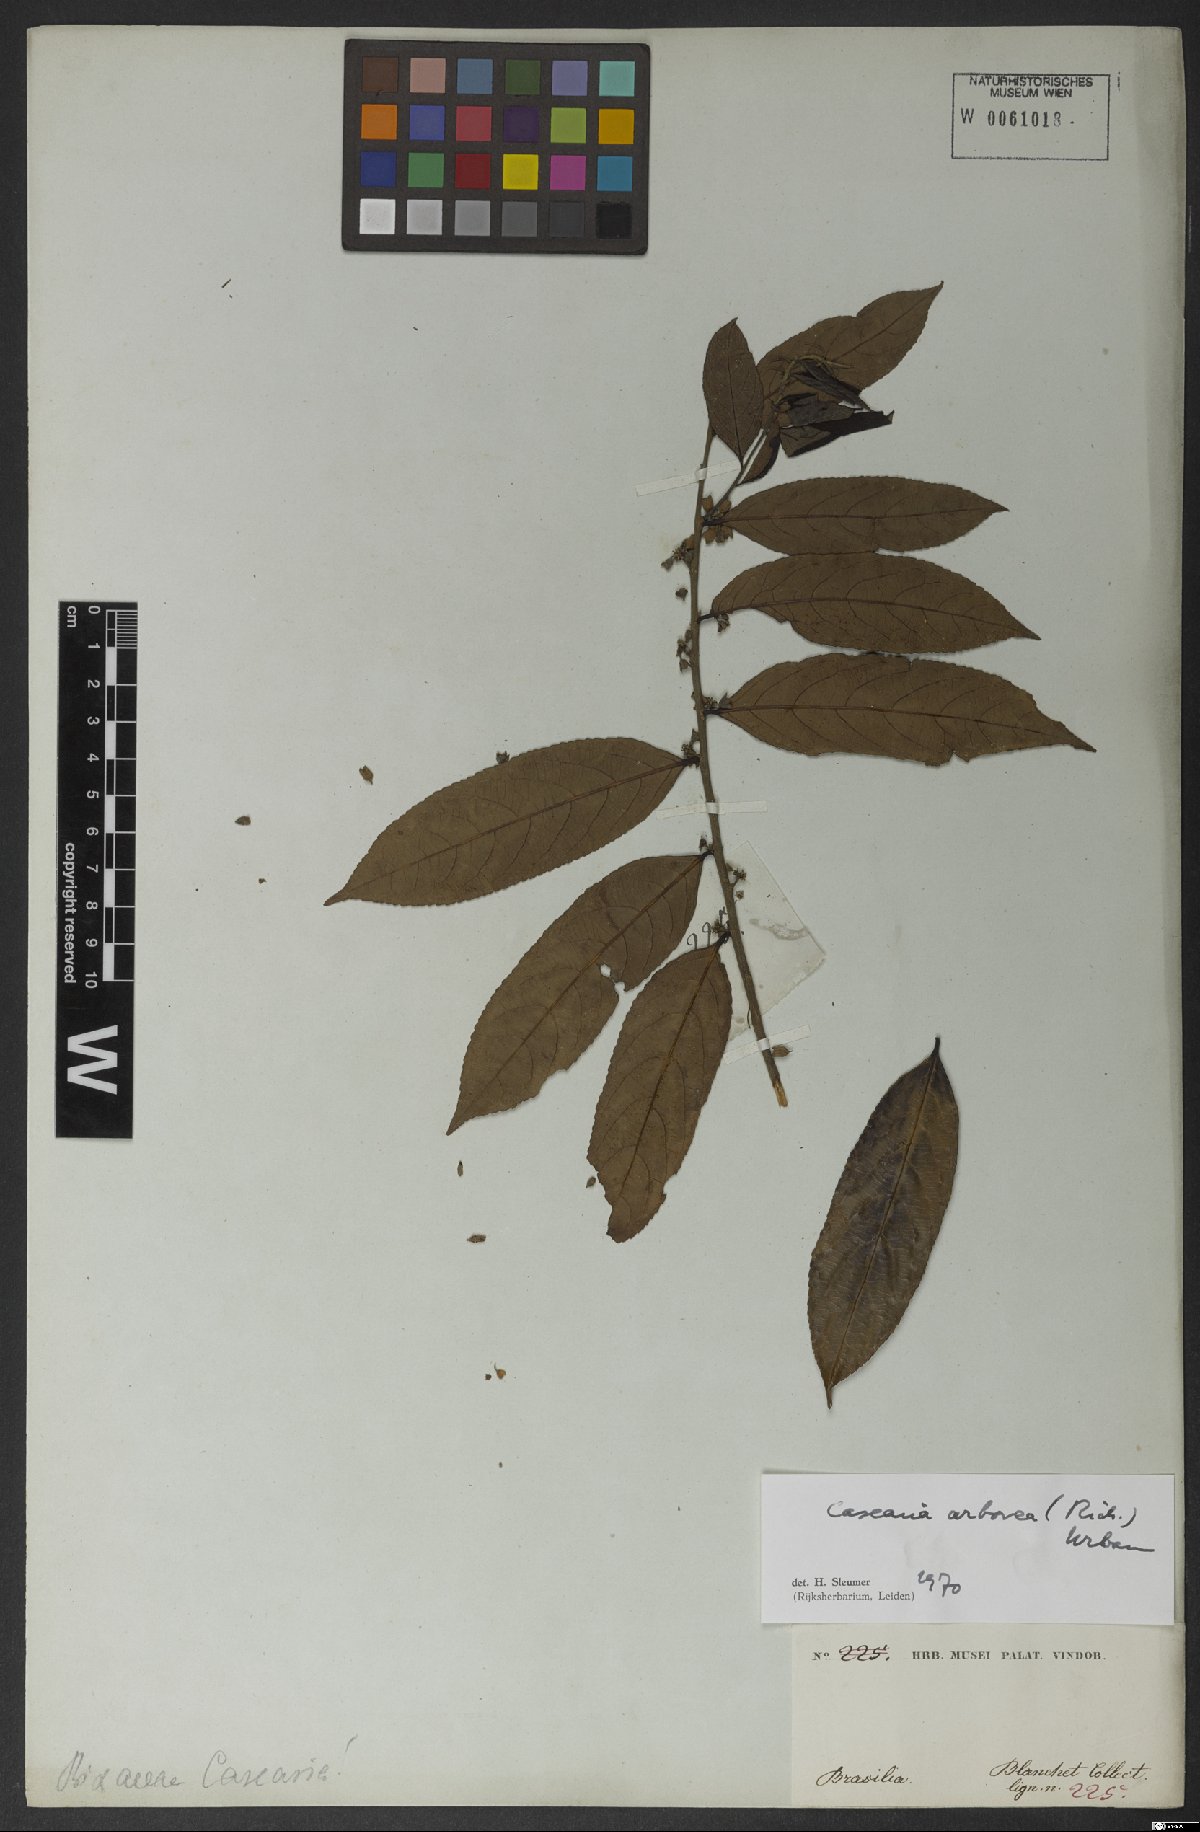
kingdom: Plantae
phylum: Tracheophyta
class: Magnoliopsida
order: Malpighiales
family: Salicaceae
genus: Casearia
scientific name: Casearia arborea
